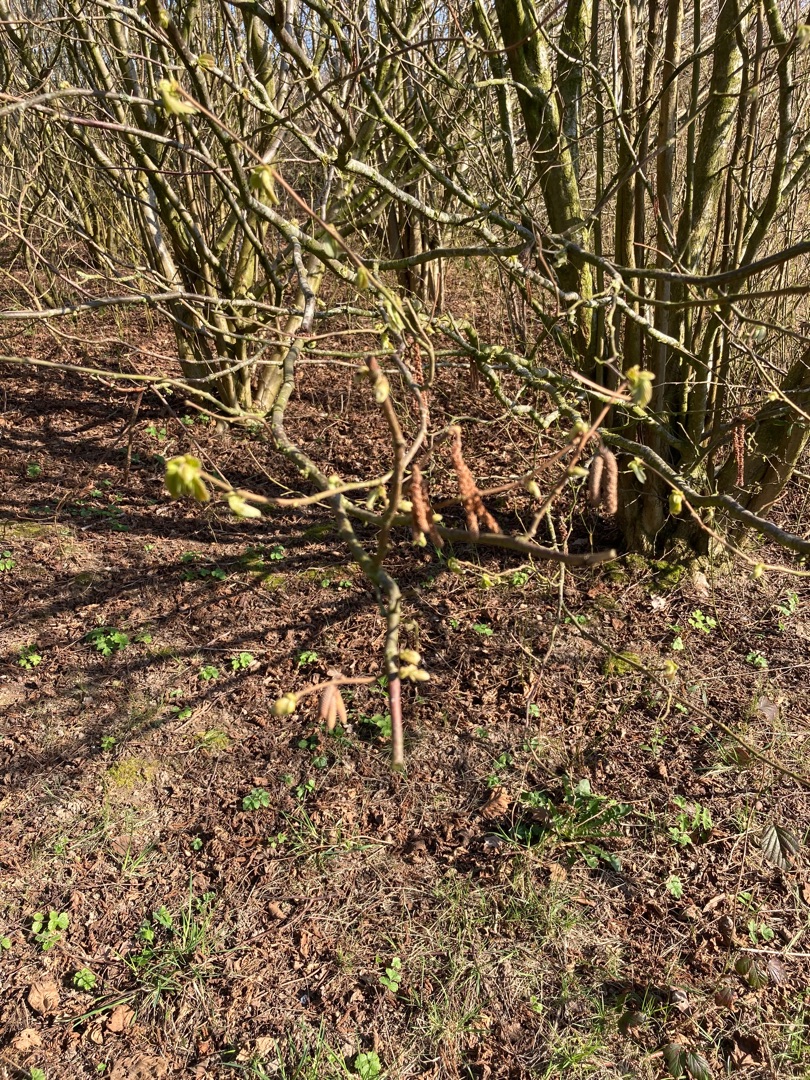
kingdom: Plantae
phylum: Tracheophyta
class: Magnoliopsida
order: Fagales
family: Betulaceae
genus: Corylus
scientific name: Corylus avellana
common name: Hassel
